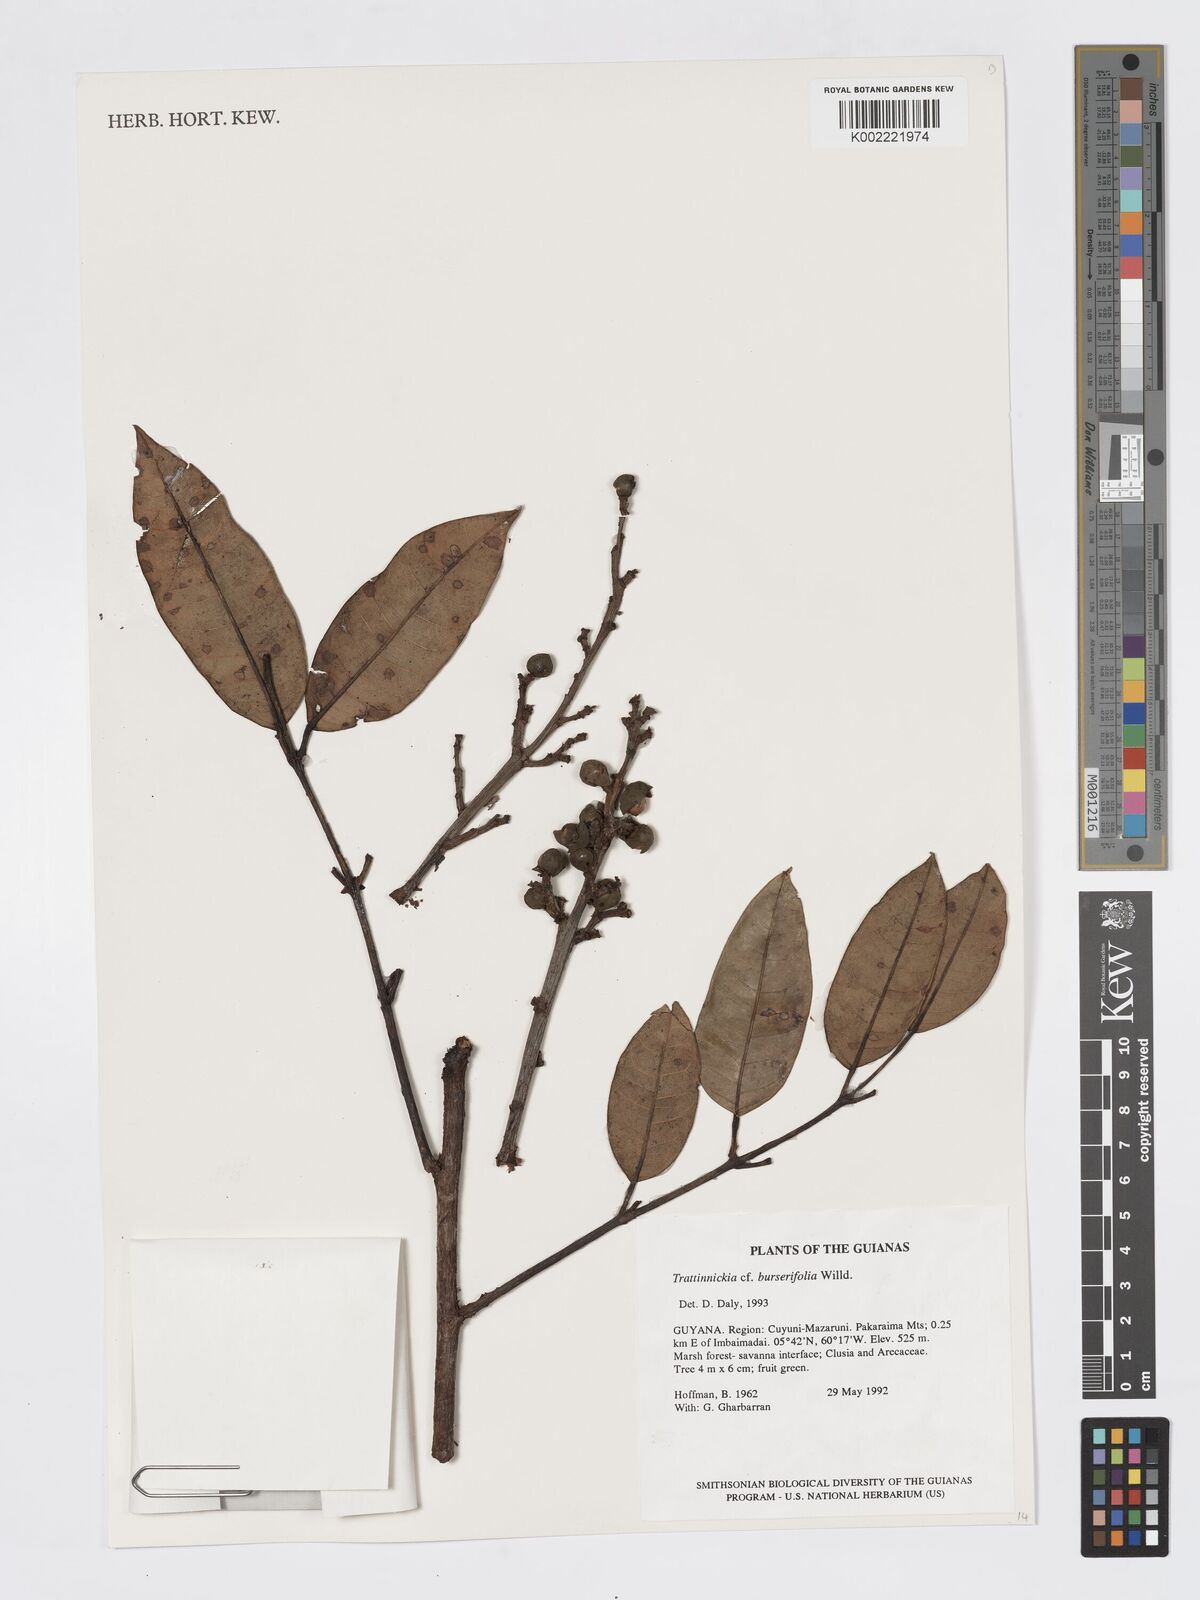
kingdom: Plantae
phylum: Tracheophyta
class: Magnoliopsida
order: Sapindales
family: Burseraceae
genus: Trattinnickia
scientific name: Trattinnickia burserifolia
